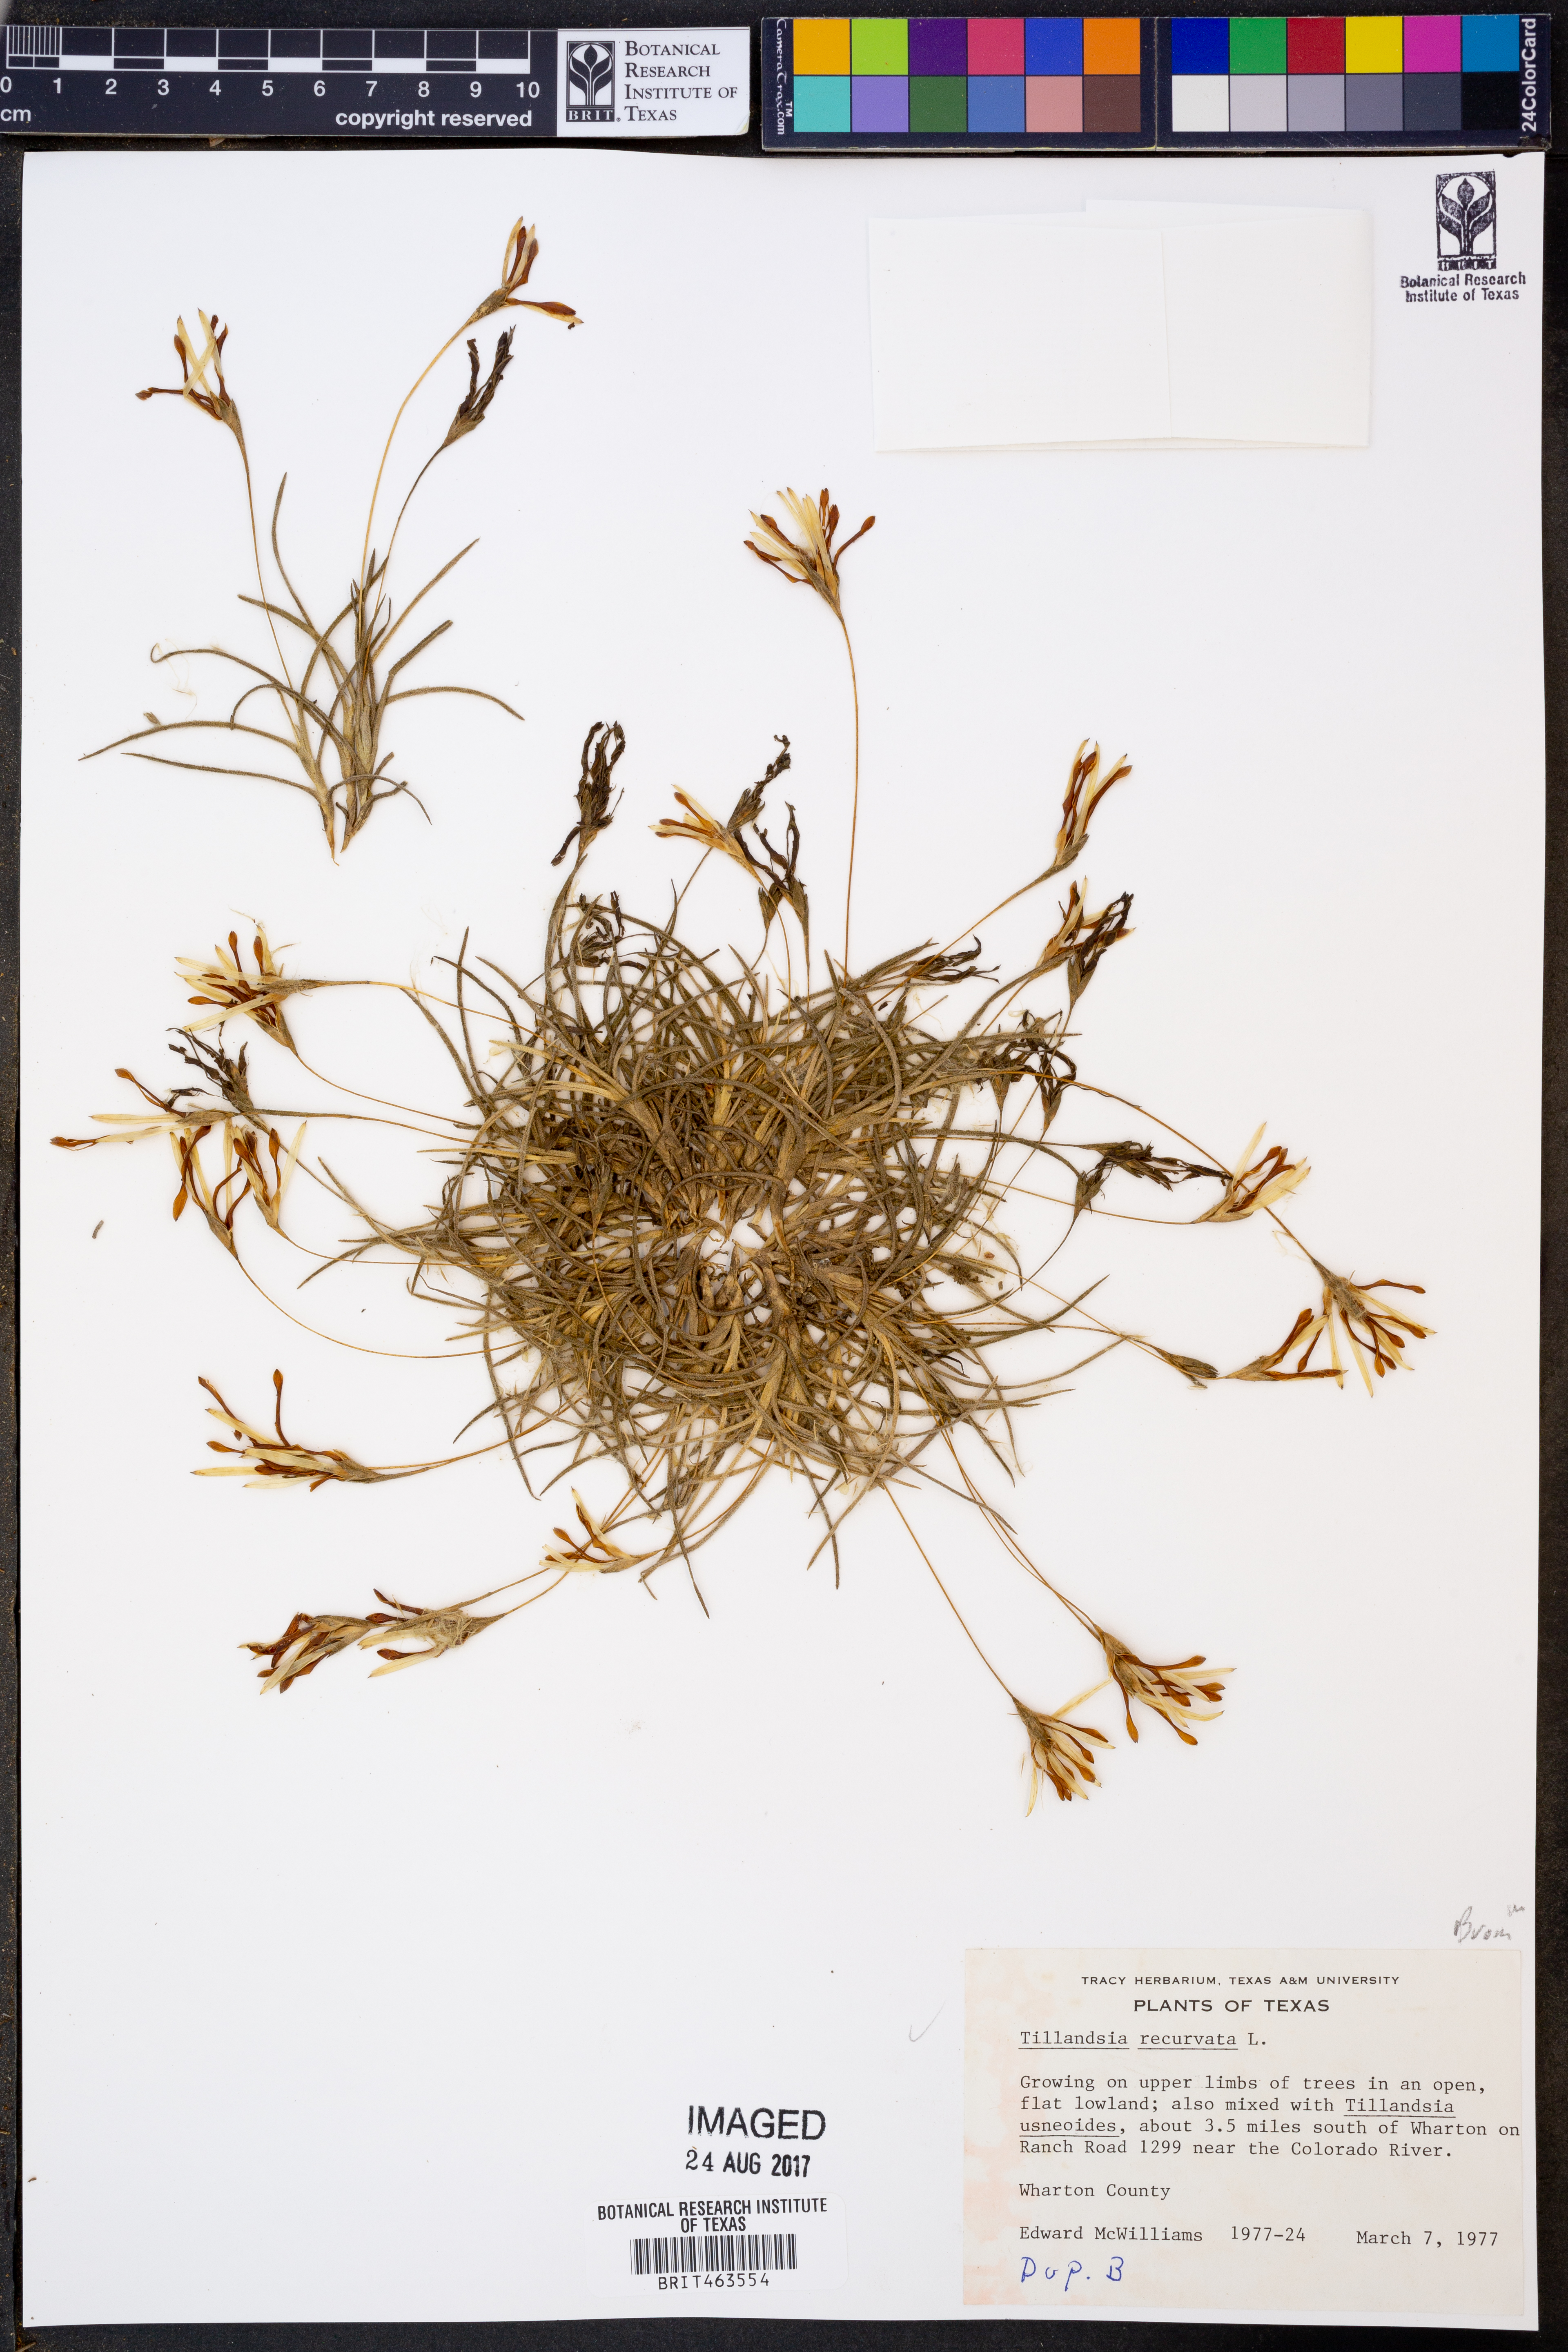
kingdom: Plantae
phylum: Tracheophyta
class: Liliopsida
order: Poales
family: Bromeliaceae
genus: Tillandsia
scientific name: Tillandsia recurvata
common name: Small ballmoss
